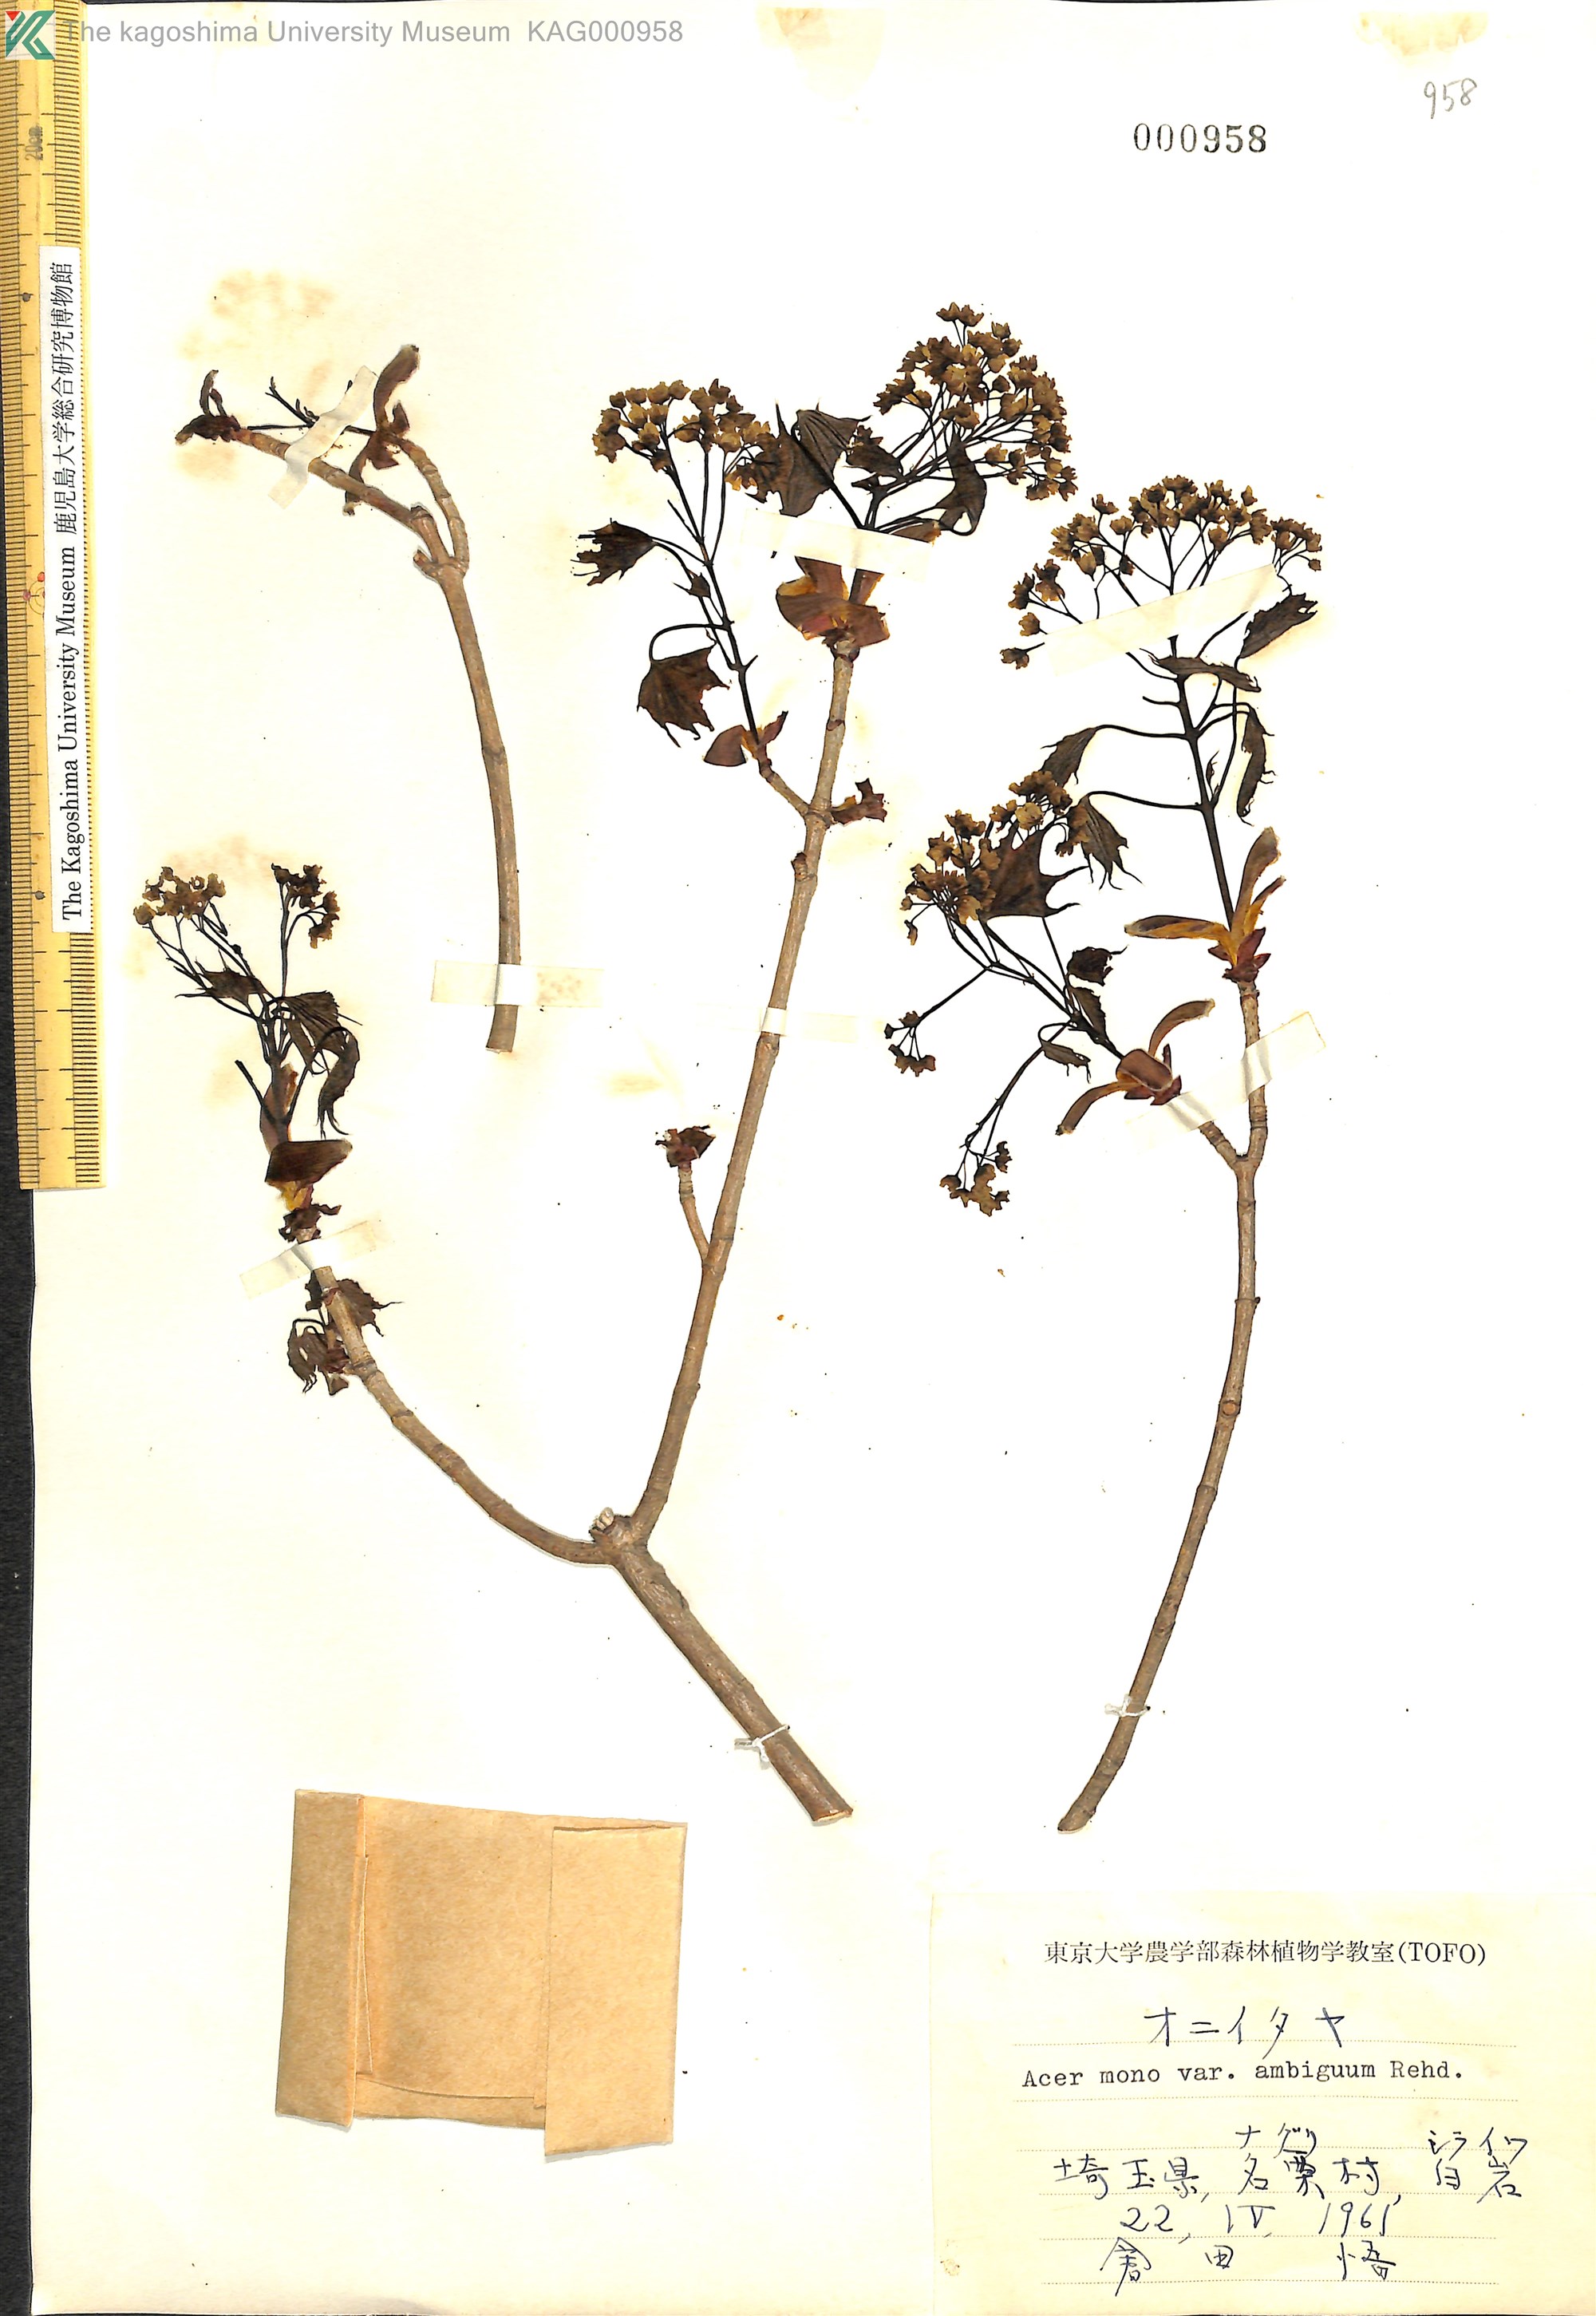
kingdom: Plantae
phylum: Tracheophyta
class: Magnoliopsida
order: Sapindales
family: Sapindaceae
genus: Acer
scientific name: Acer pictum
